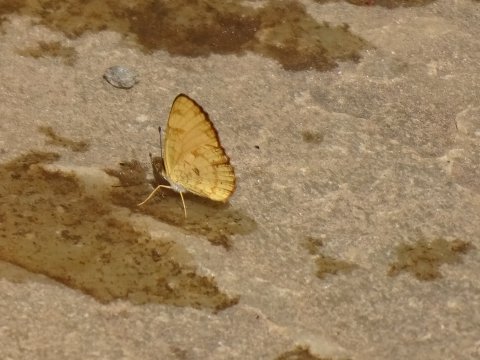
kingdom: Animalia
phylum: Arthropoda
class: Insecta
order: Lepidoptera
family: Nymphalidae
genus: Tegosa
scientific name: Tegosa claudina
